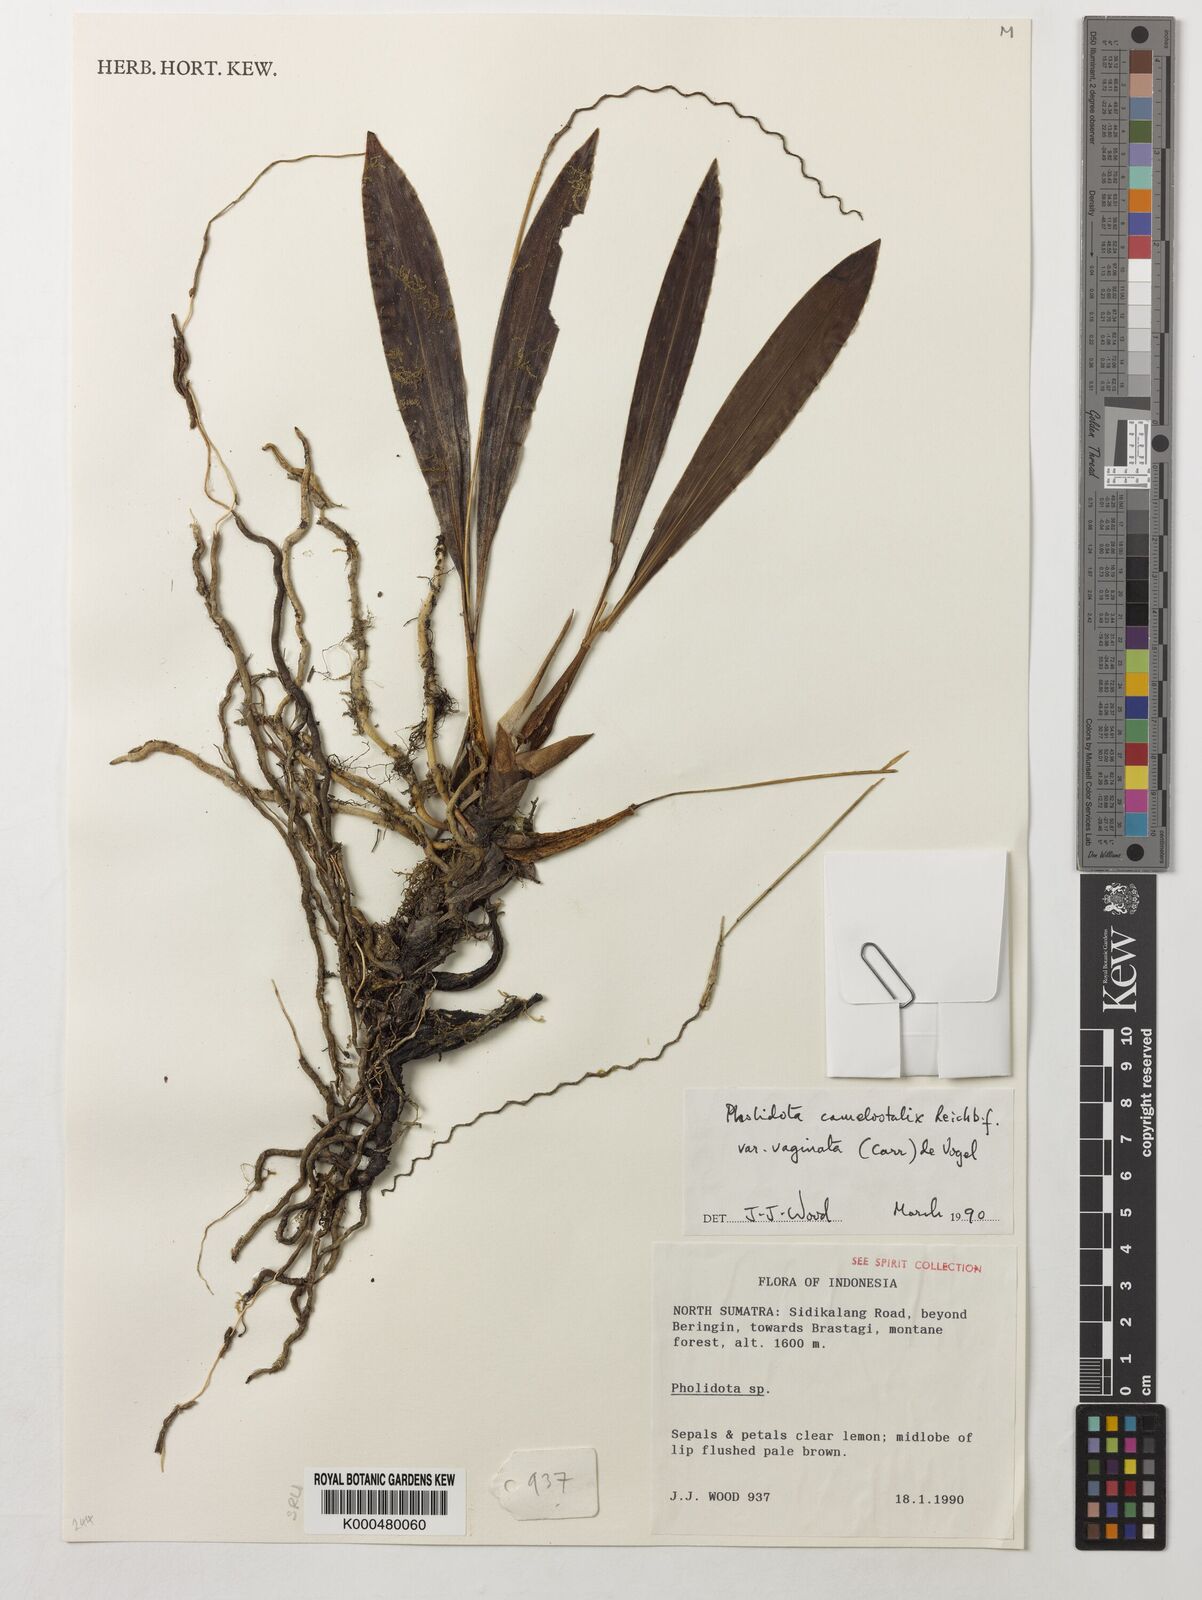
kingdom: Plantae
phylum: Tracheophyta
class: Liliopsida
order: Asparagales
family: Orchidaceae
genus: Coelogyne
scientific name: Coelogyne camelostalix
